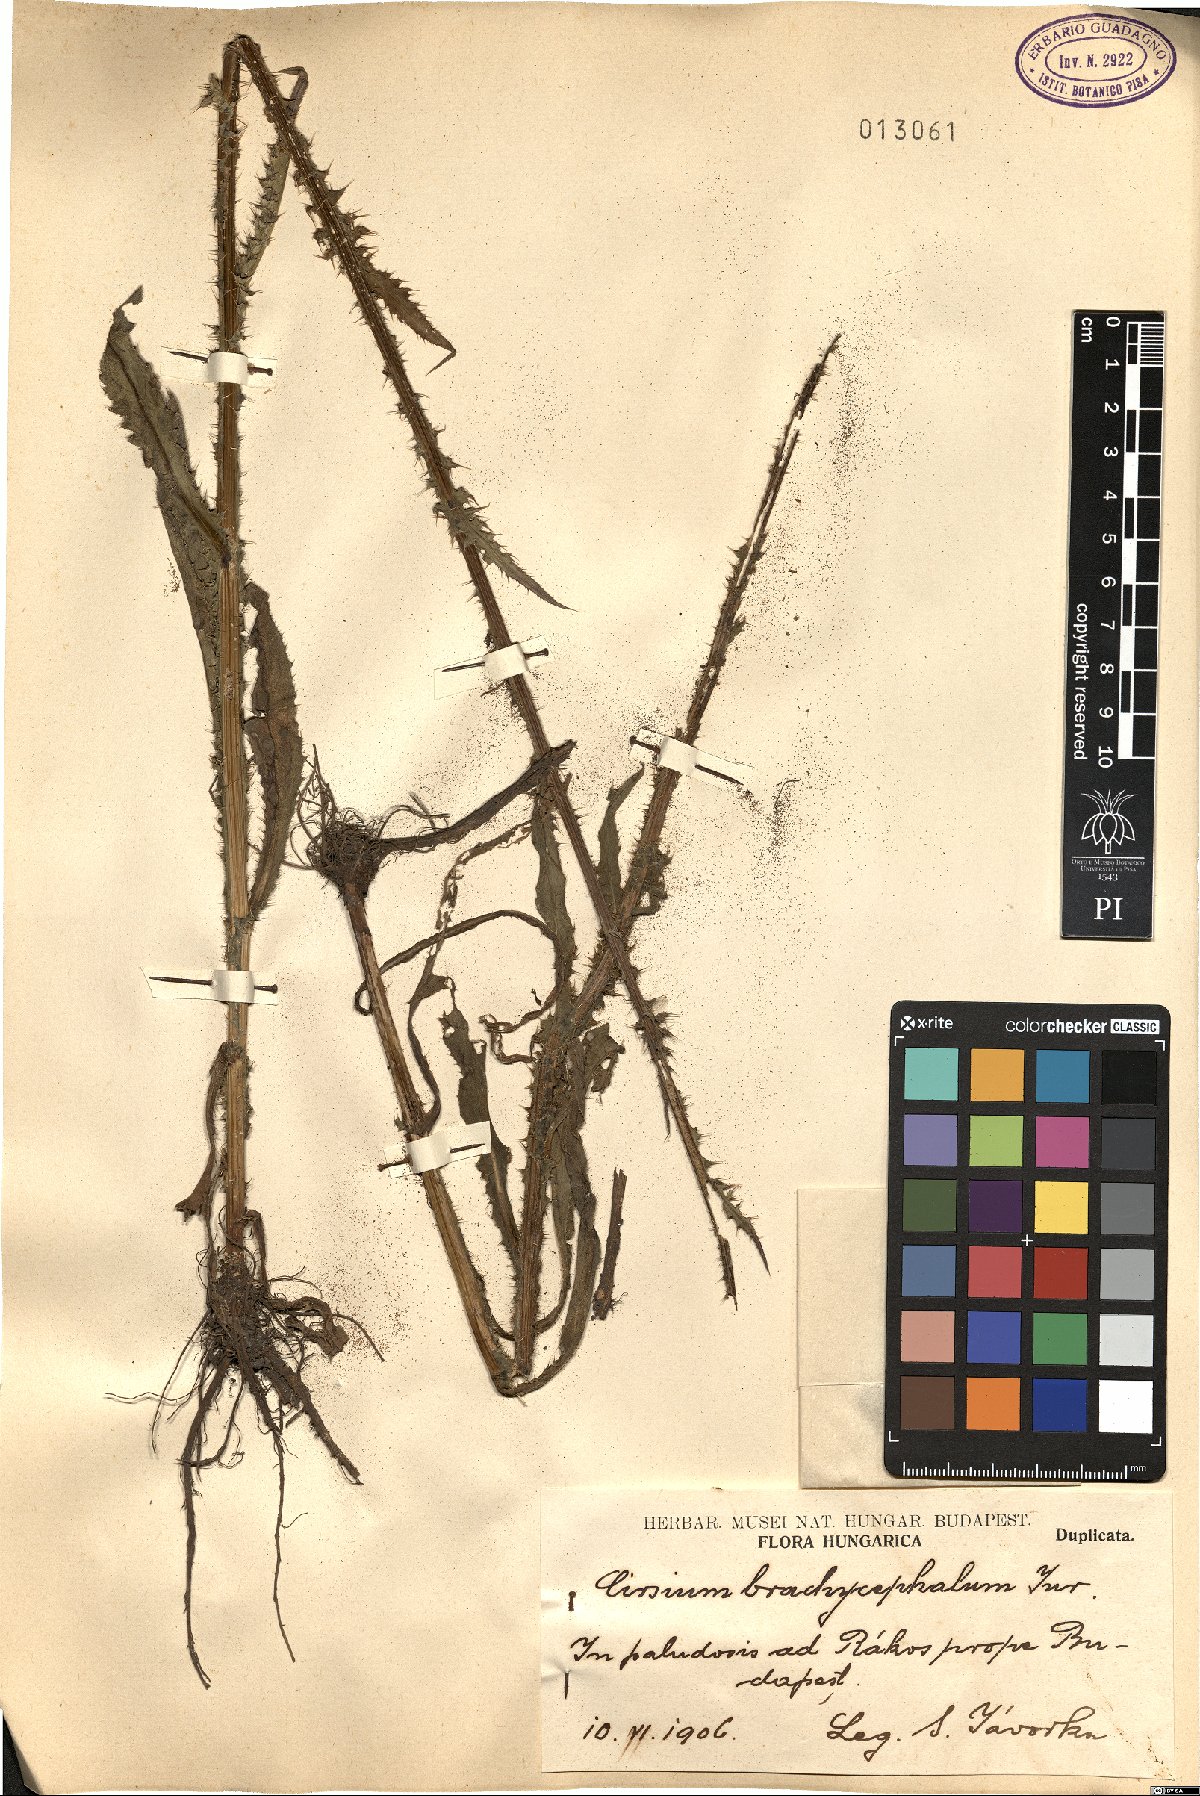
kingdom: Plantae
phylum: Tracheophyta
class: Magnoliopsida
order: Asterales
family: Asteraceae
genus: Cirsium
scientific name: Cirsium brachycephalum
